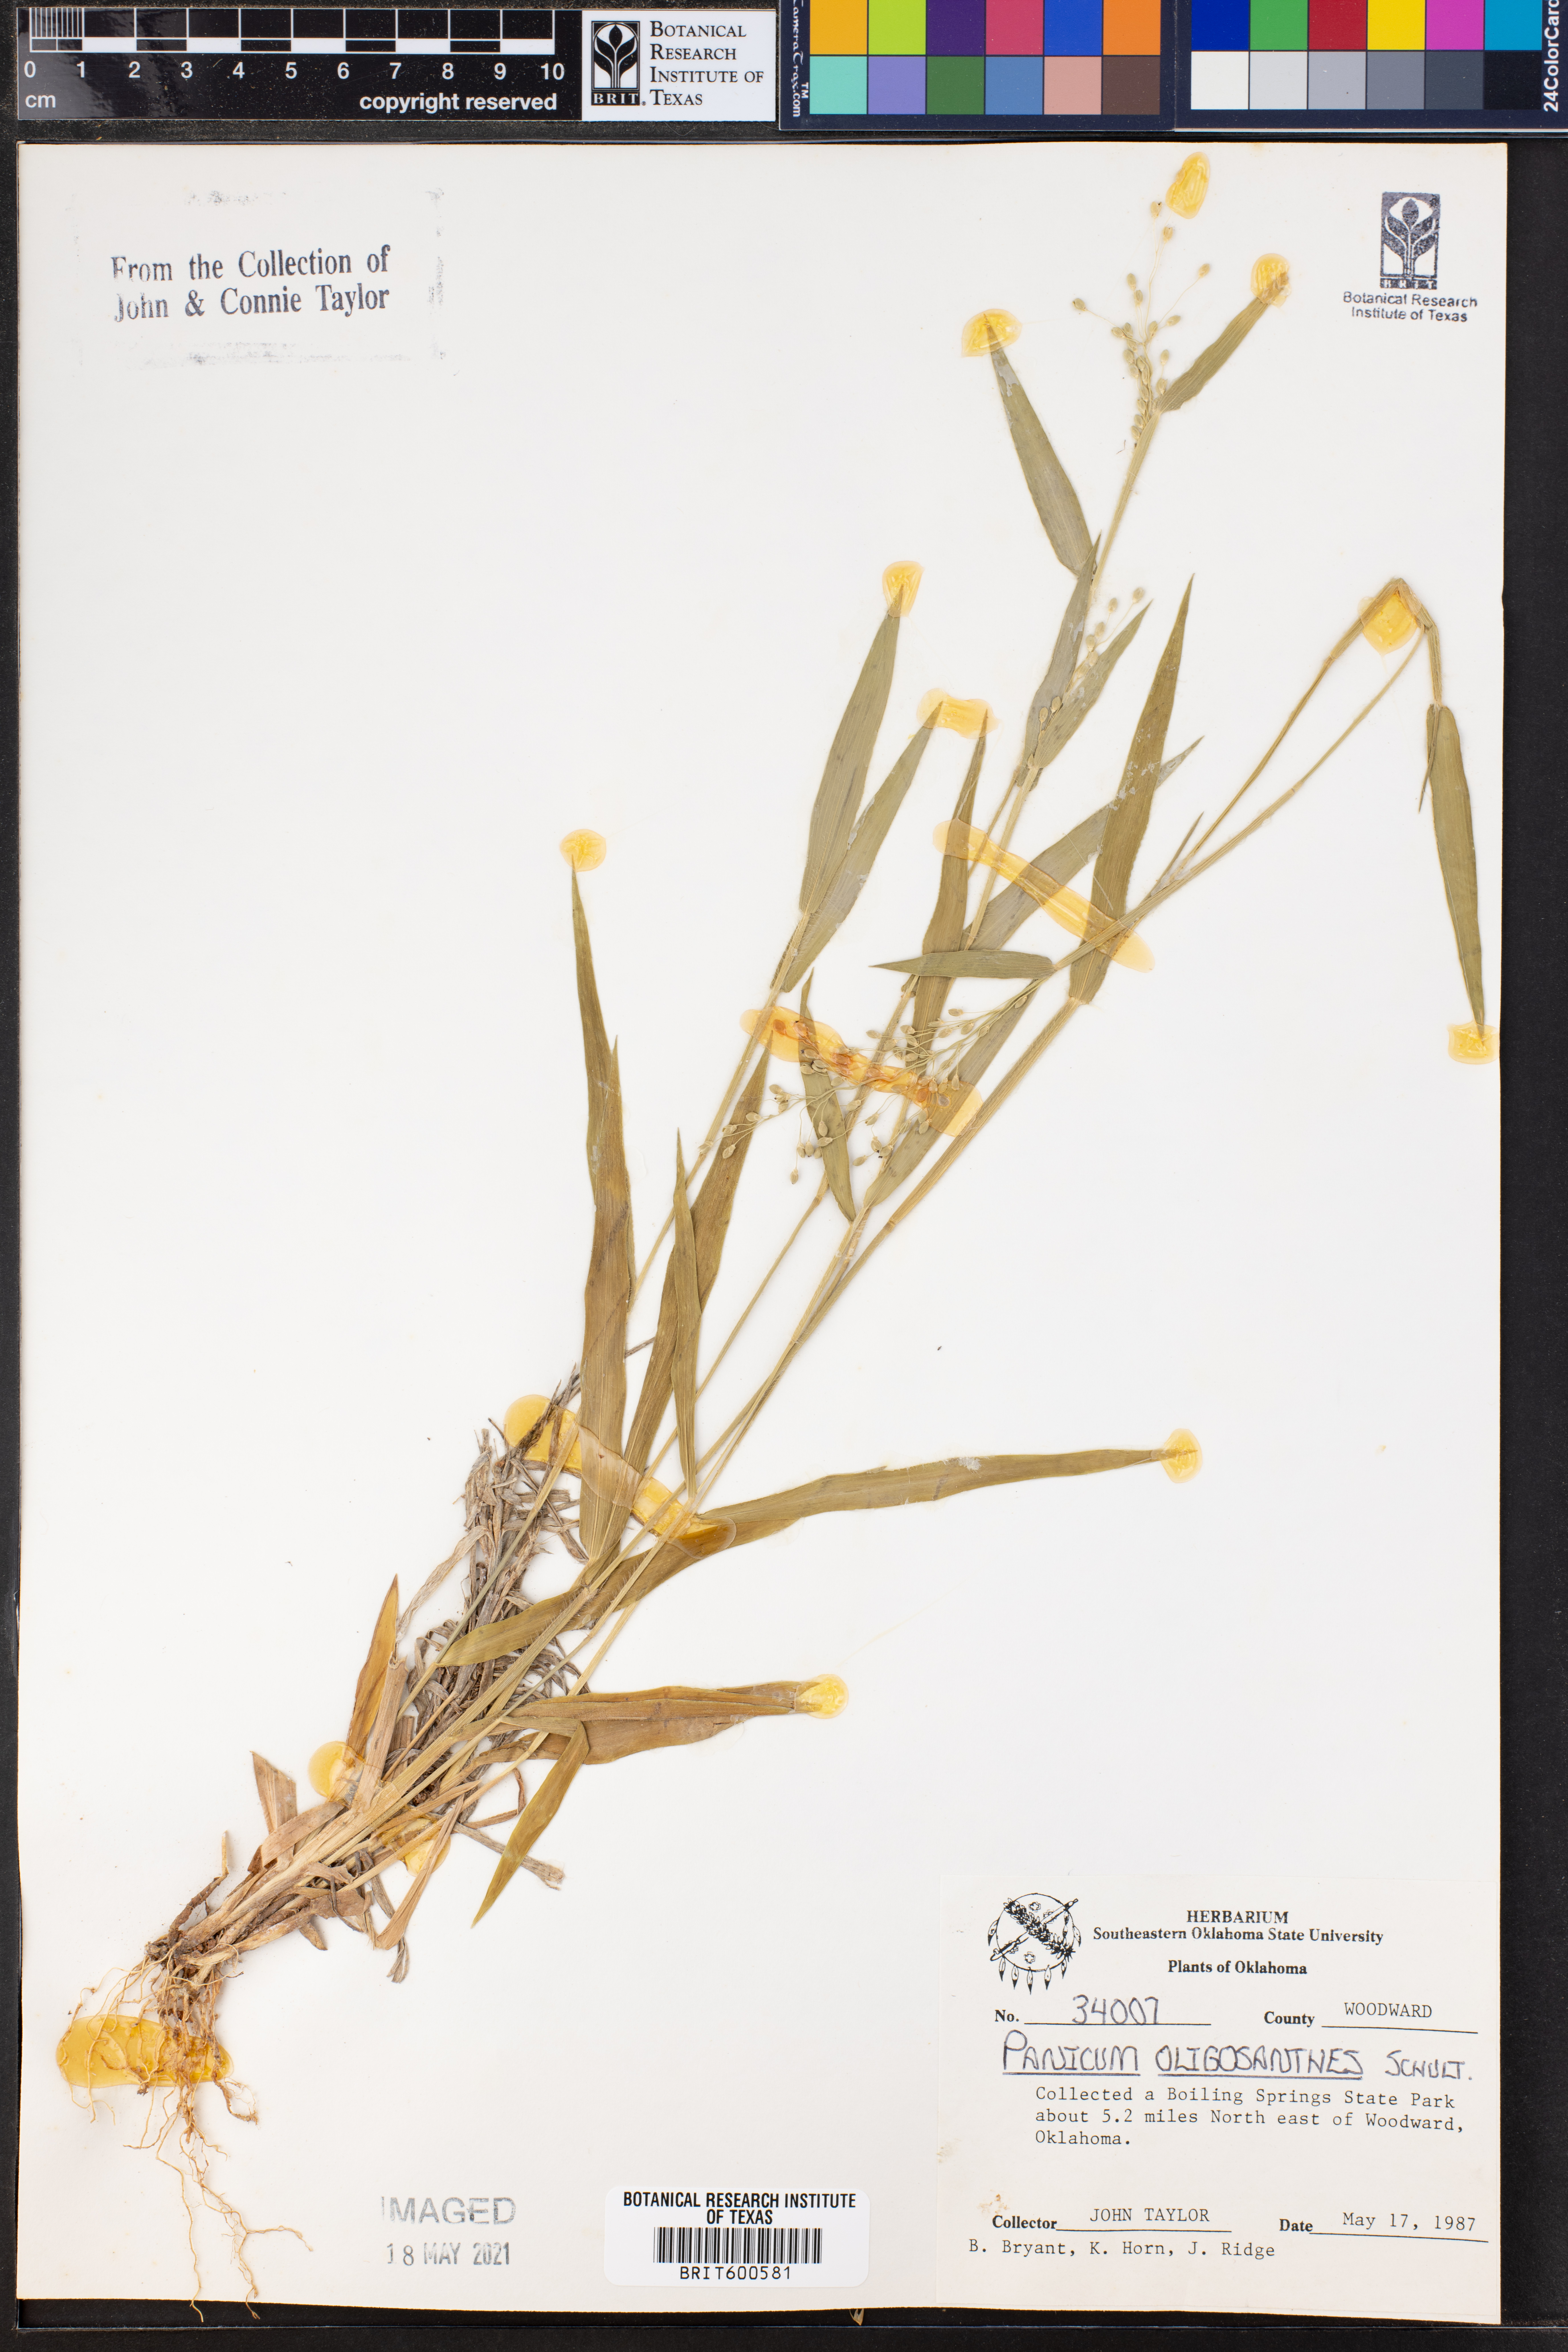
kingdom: Plantae
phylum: Tracheophyta
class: Liliopsida
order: Poales
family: Poaceae
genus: Dichanthelium
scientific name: Dichanthelium oligosanthes
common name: Few-anther obscuregrass
